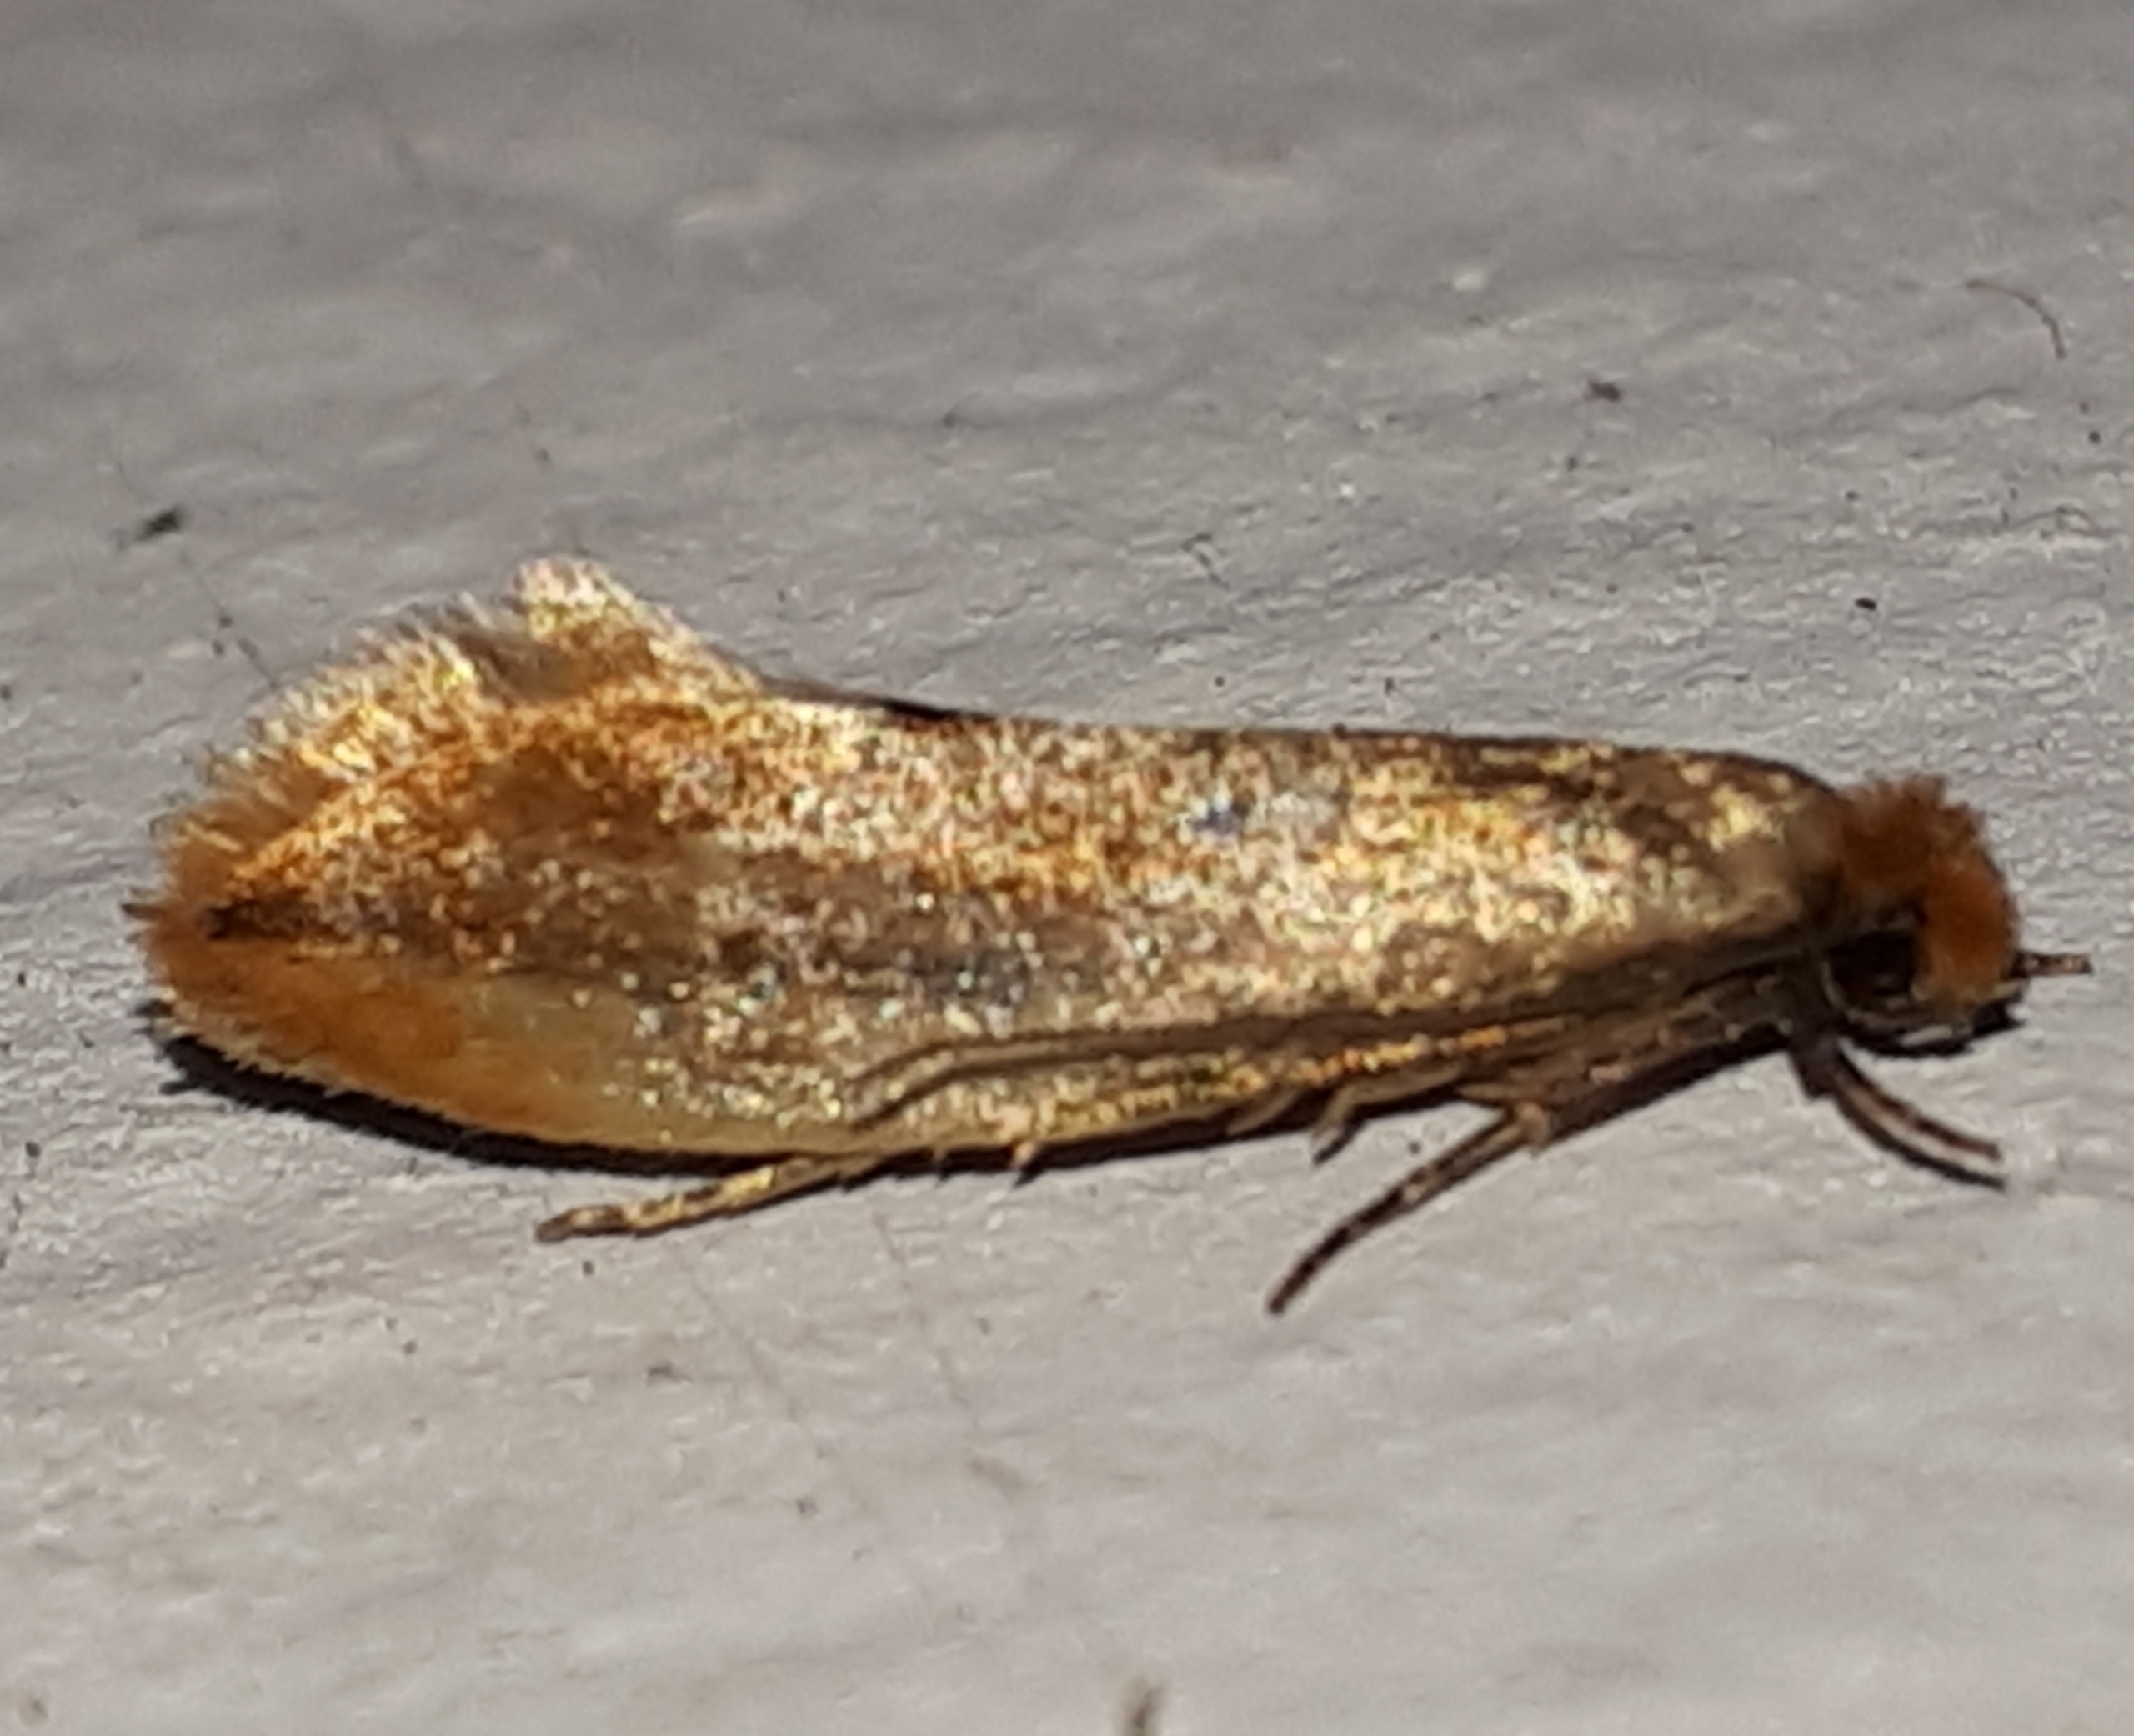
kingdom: Animalia
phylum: Arthropoda
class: Insecta
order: Lepidoptera
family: Tineidae
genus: Tinea
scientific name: Tinea semifulvella
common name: Rødgult redemøl
